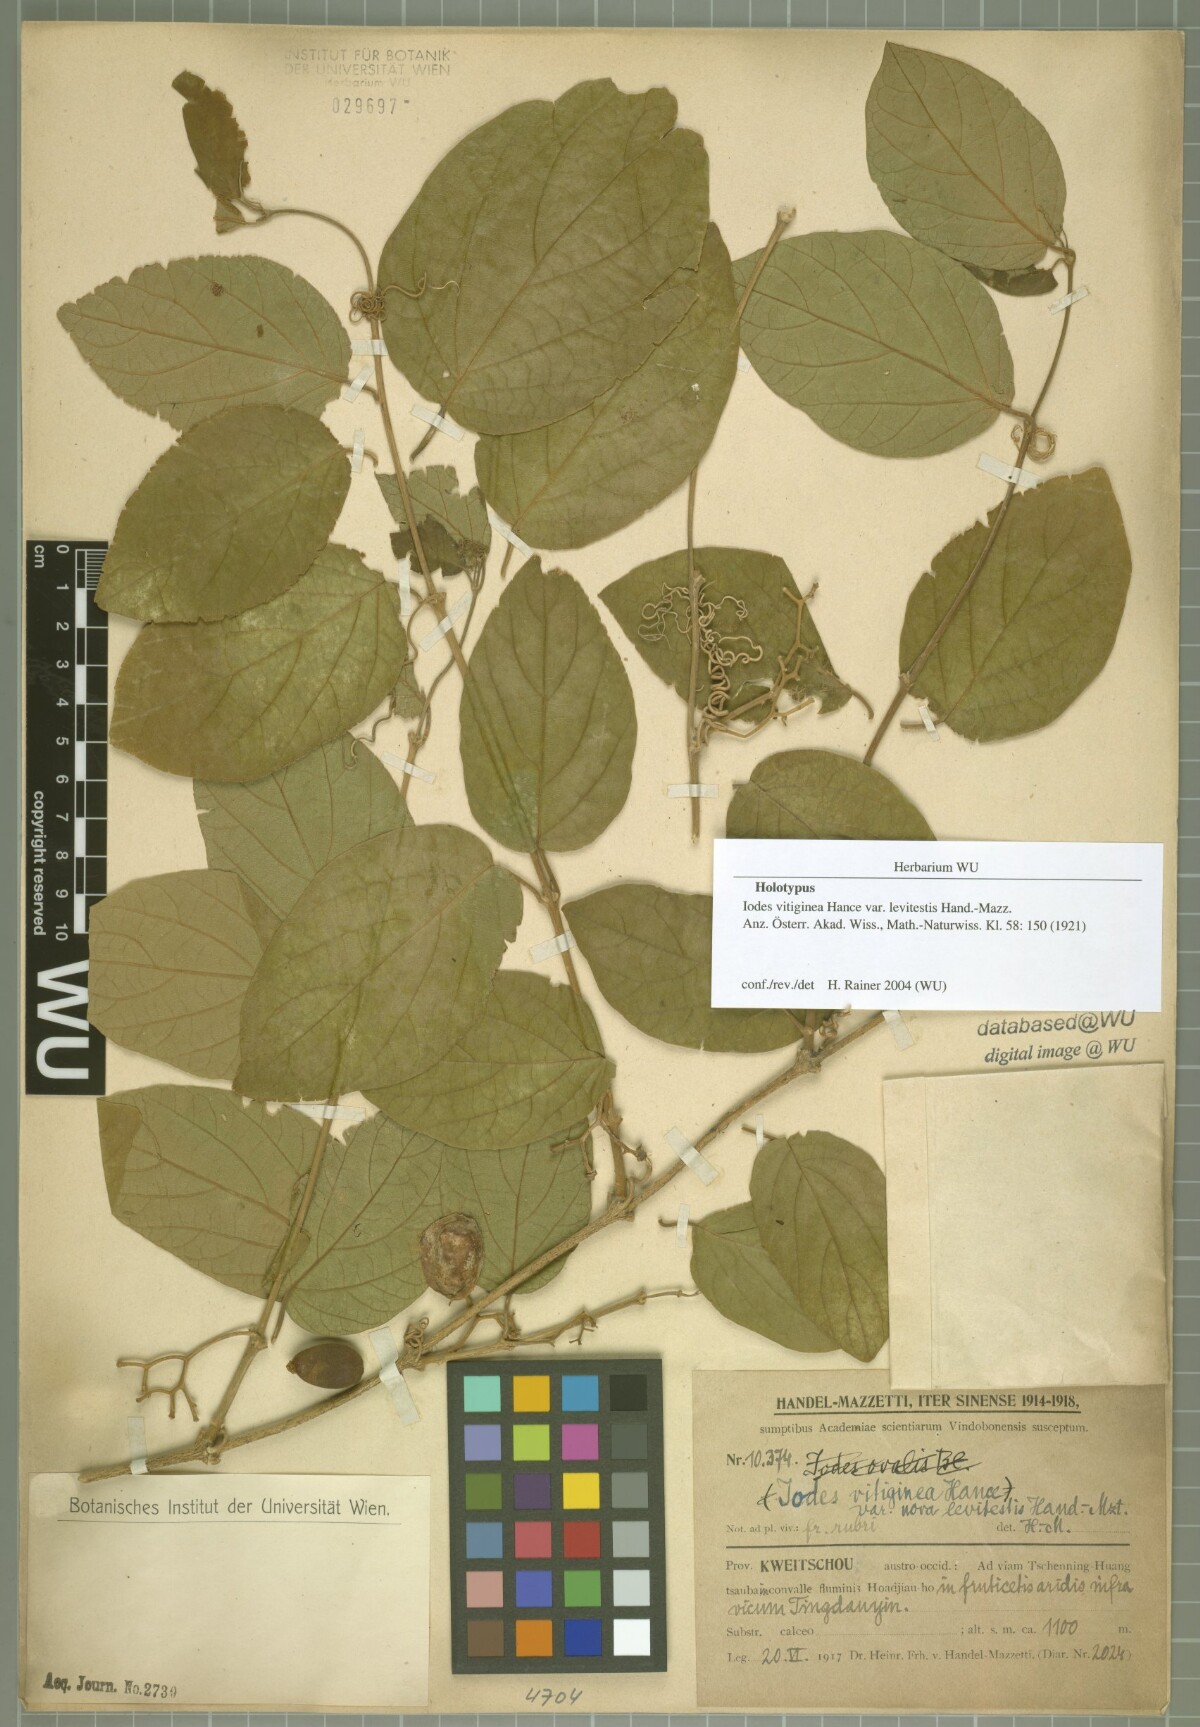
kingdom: Plantae
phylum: Tracheophyta
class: Magnoliopsida
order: Icacinales
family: Icacinaceae
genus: Iodes
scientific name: Iodes seguinii
